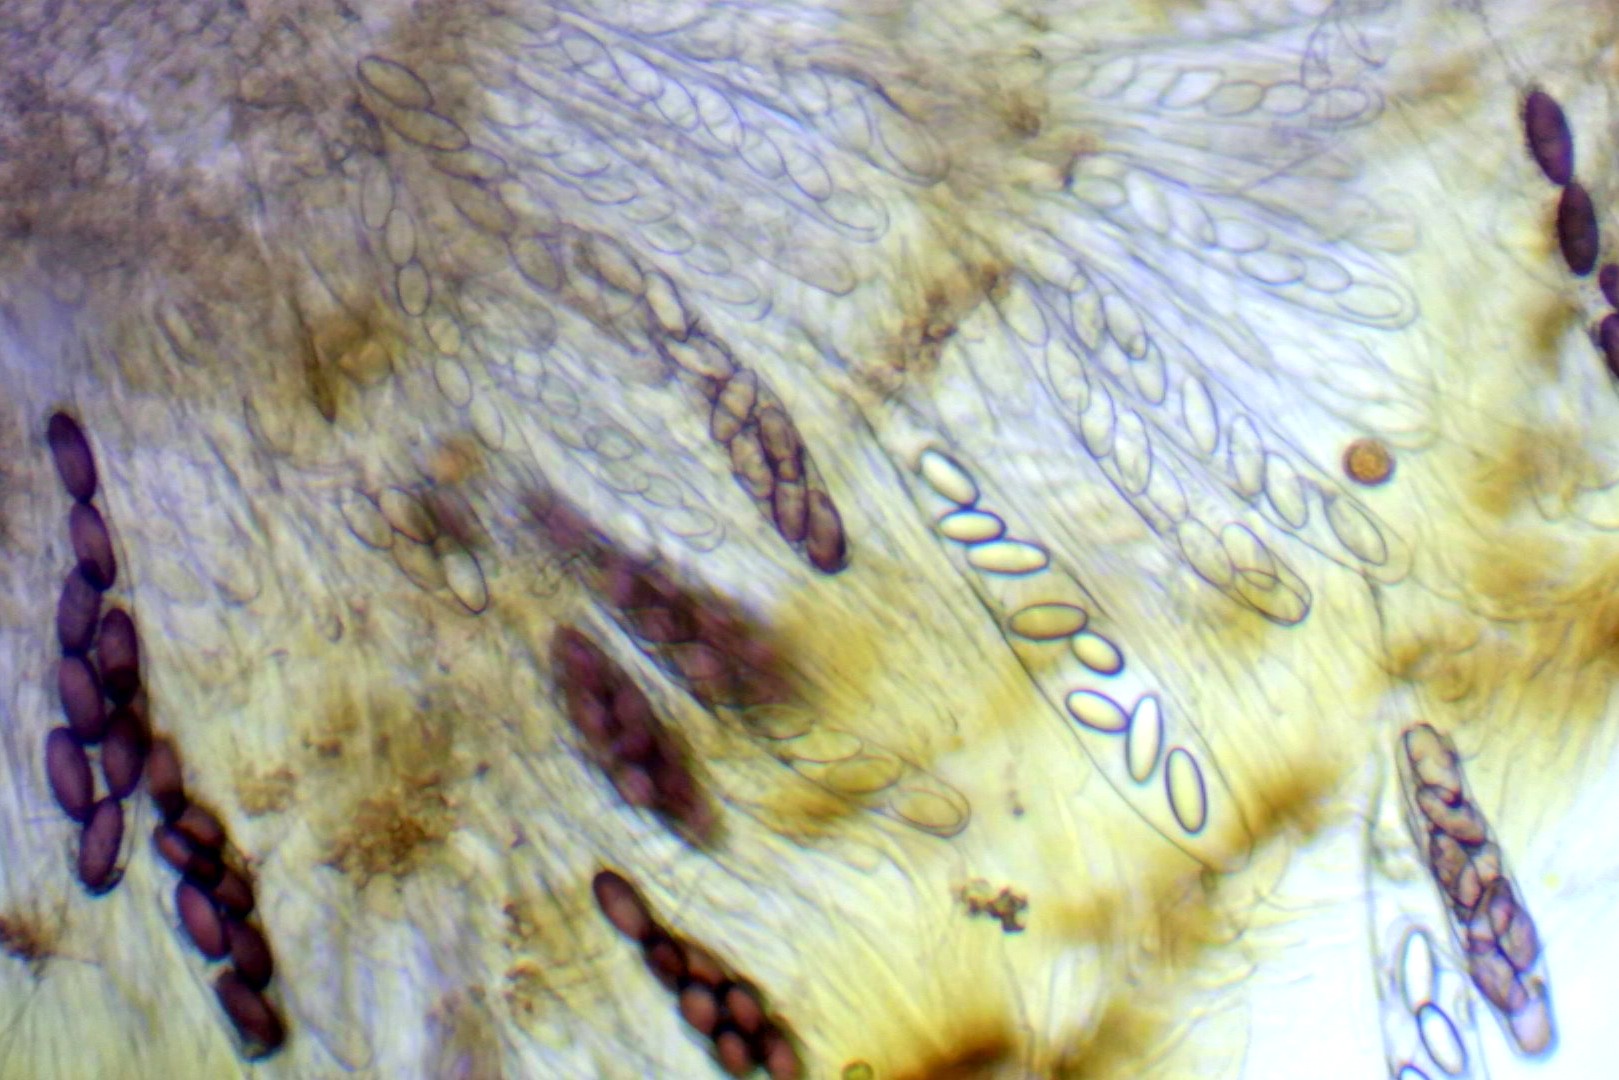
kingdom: Fungi
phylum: Ascomycota
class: Pezizomycetes
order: Pezizales
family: Ascobolaceae
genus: Ascobolus
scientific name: Ascobolus furfuraceus
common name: almindelig prikbæger
